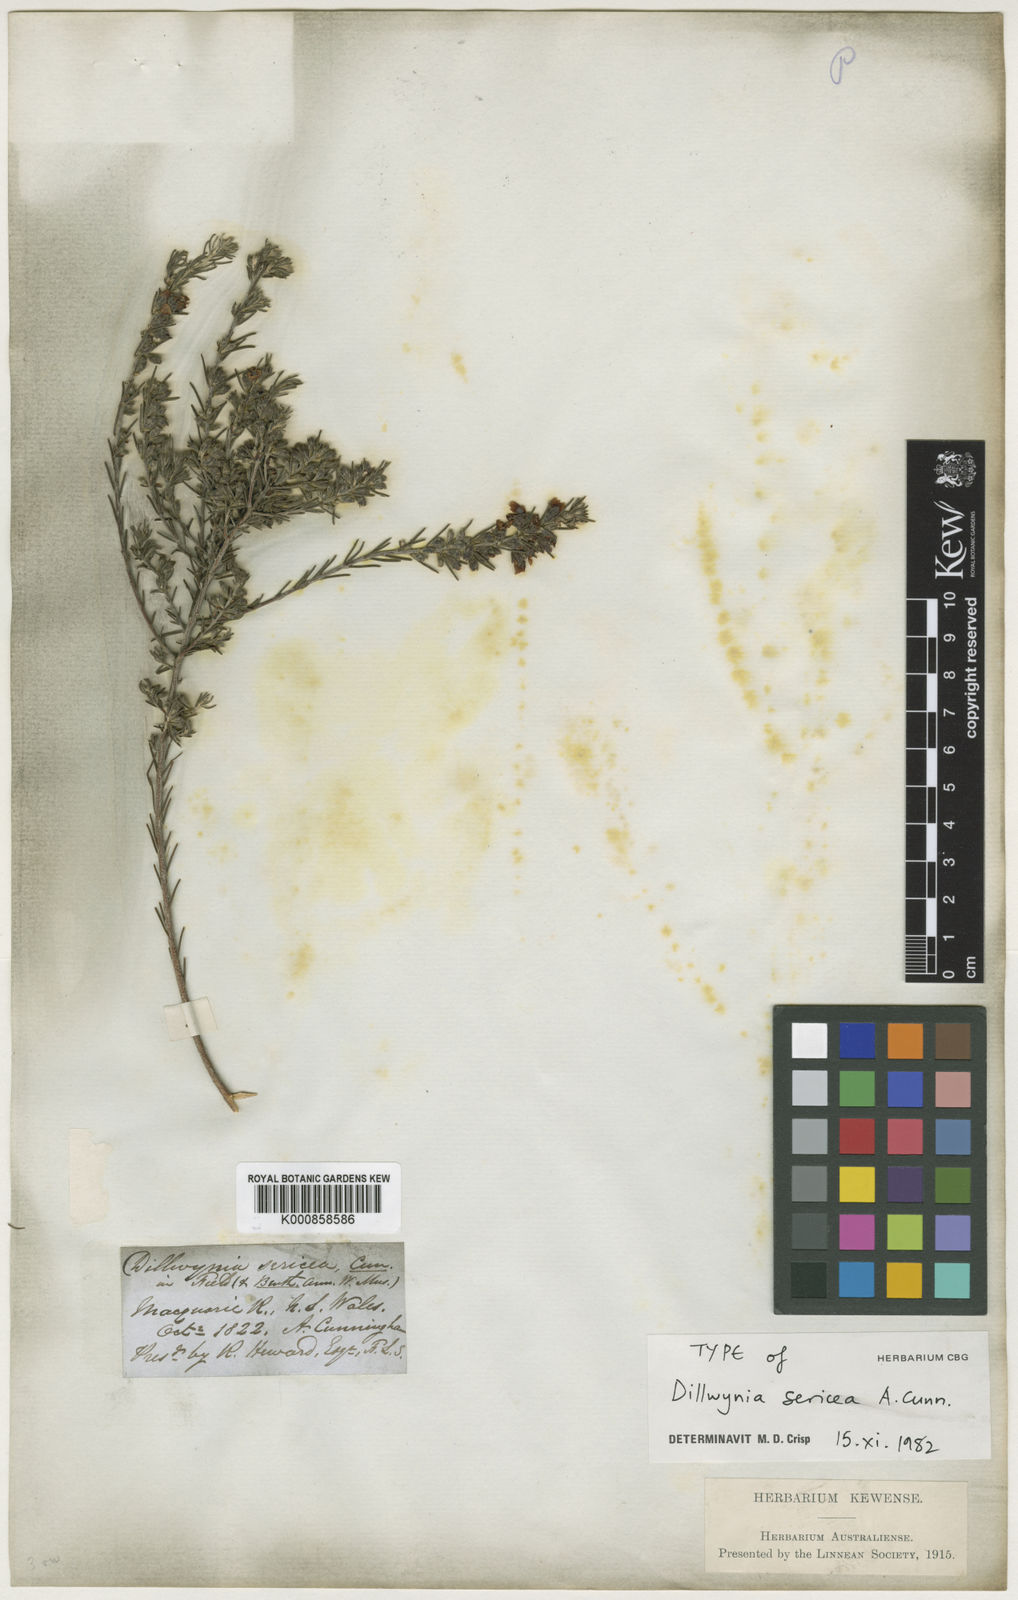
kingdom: Plantae
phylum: Tracheophyta
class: Magnoliopsida
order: Fabales
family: Fabaceae
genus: Dillwynia
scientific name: Dillwynia sericea
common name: Showy parrot-pea
